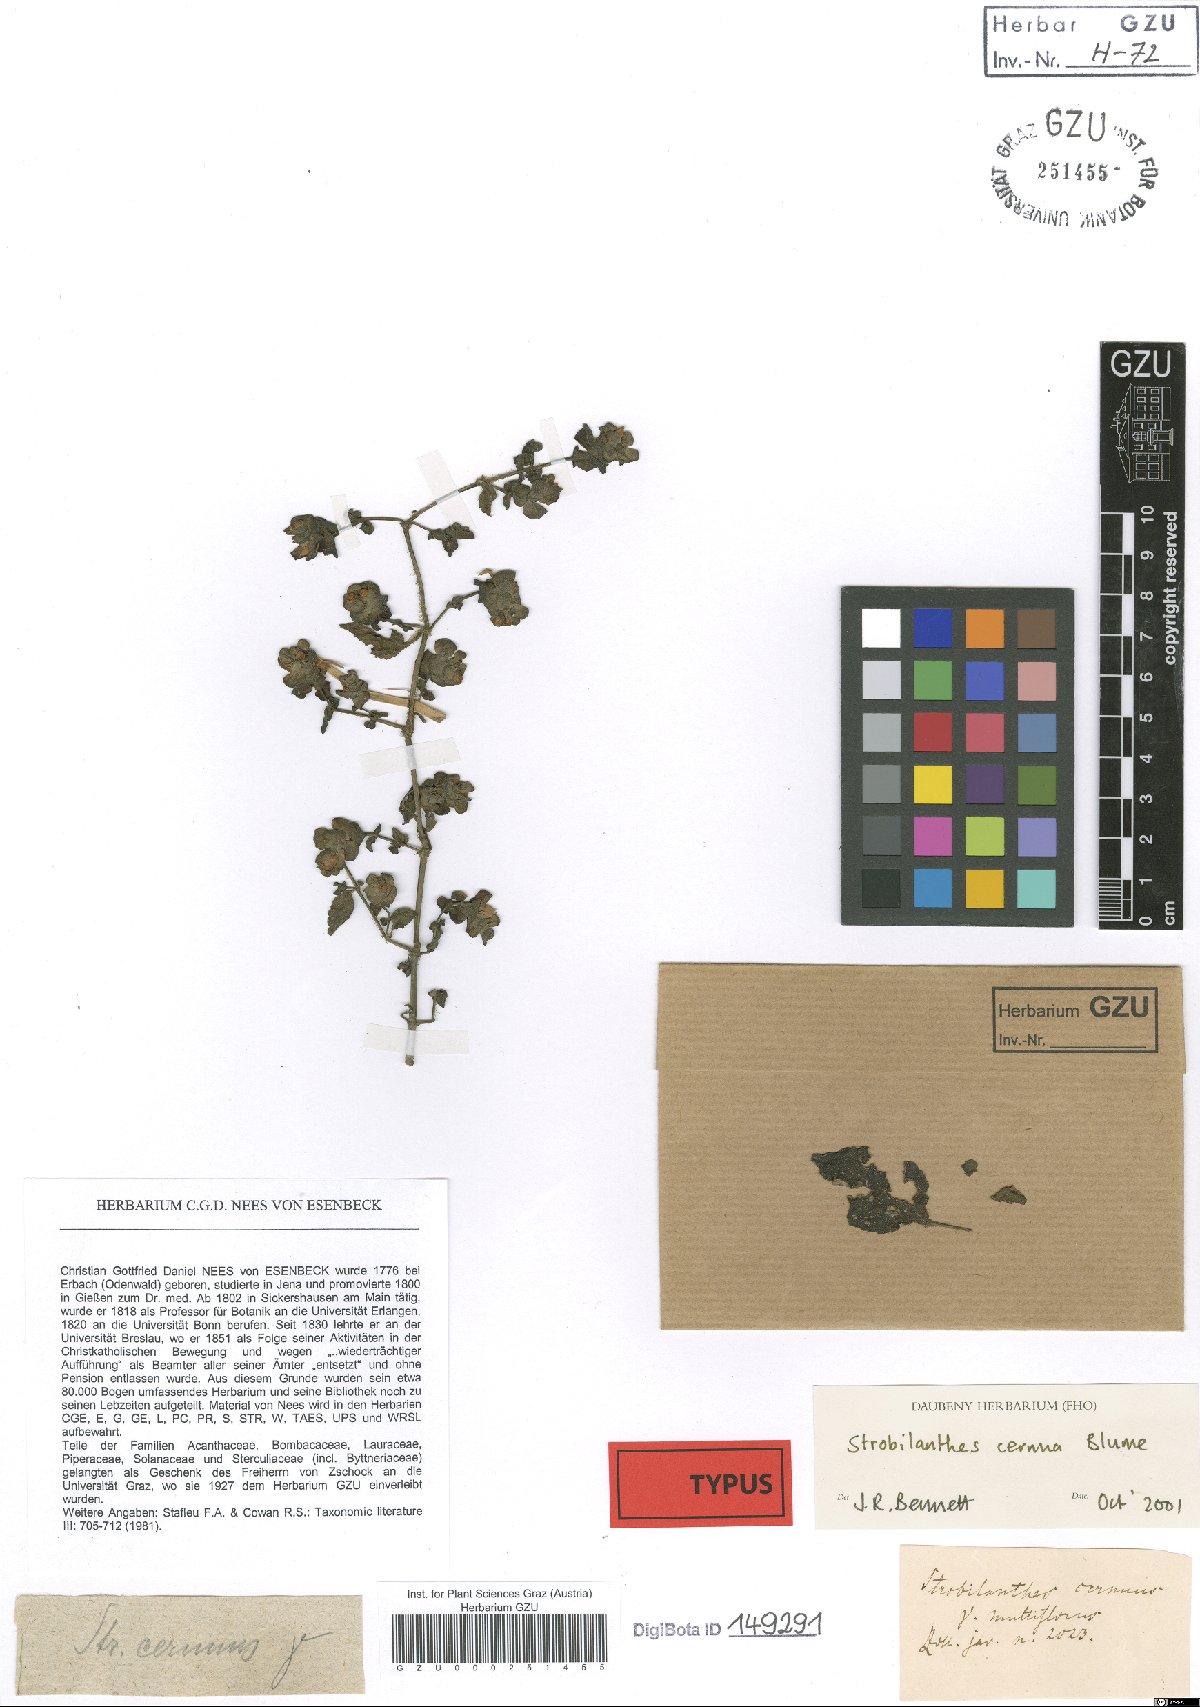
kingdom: Plantae
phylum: Tracheophyta
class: Magnoliopsida
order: Lamiales
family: Acanthaceae
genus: Strobilanthes
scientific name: Strobilanthes cernua
